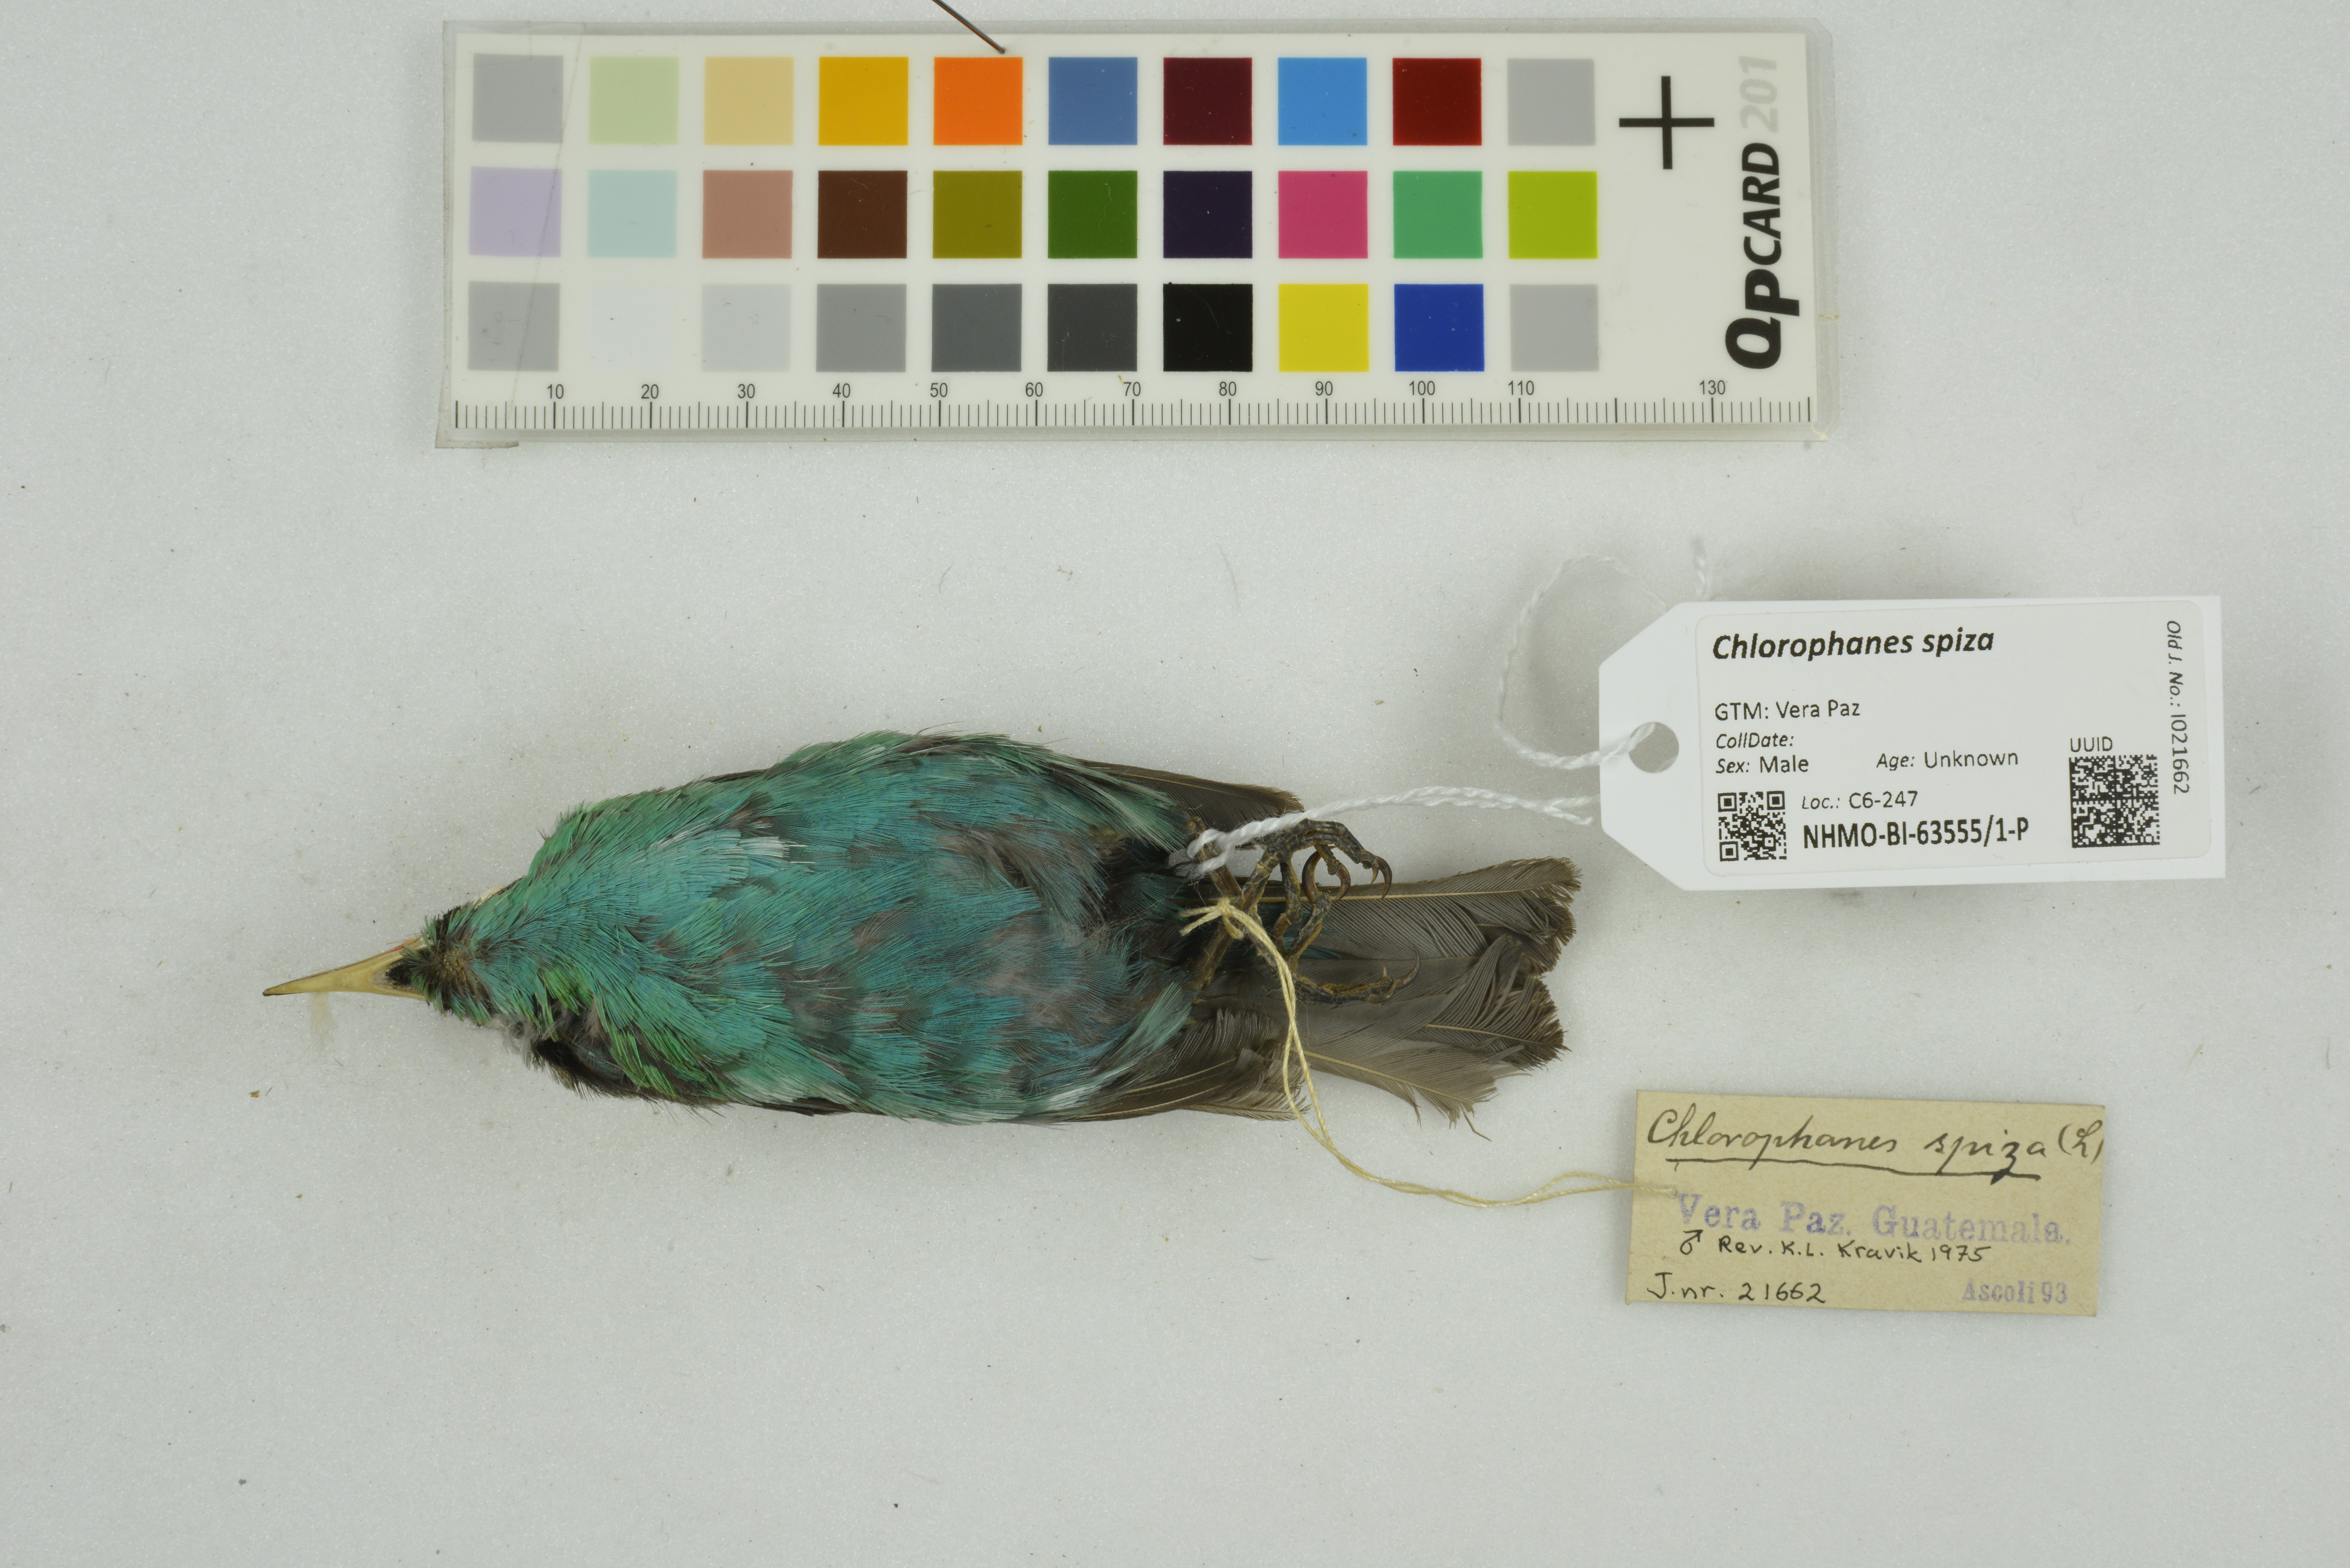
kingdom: Animalia
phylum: Chordata
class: Aves
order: Passeriformes
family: Thraupidae
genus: Chlorophanes
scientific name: Chlorophanes spiza
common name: Green honeycreeper
